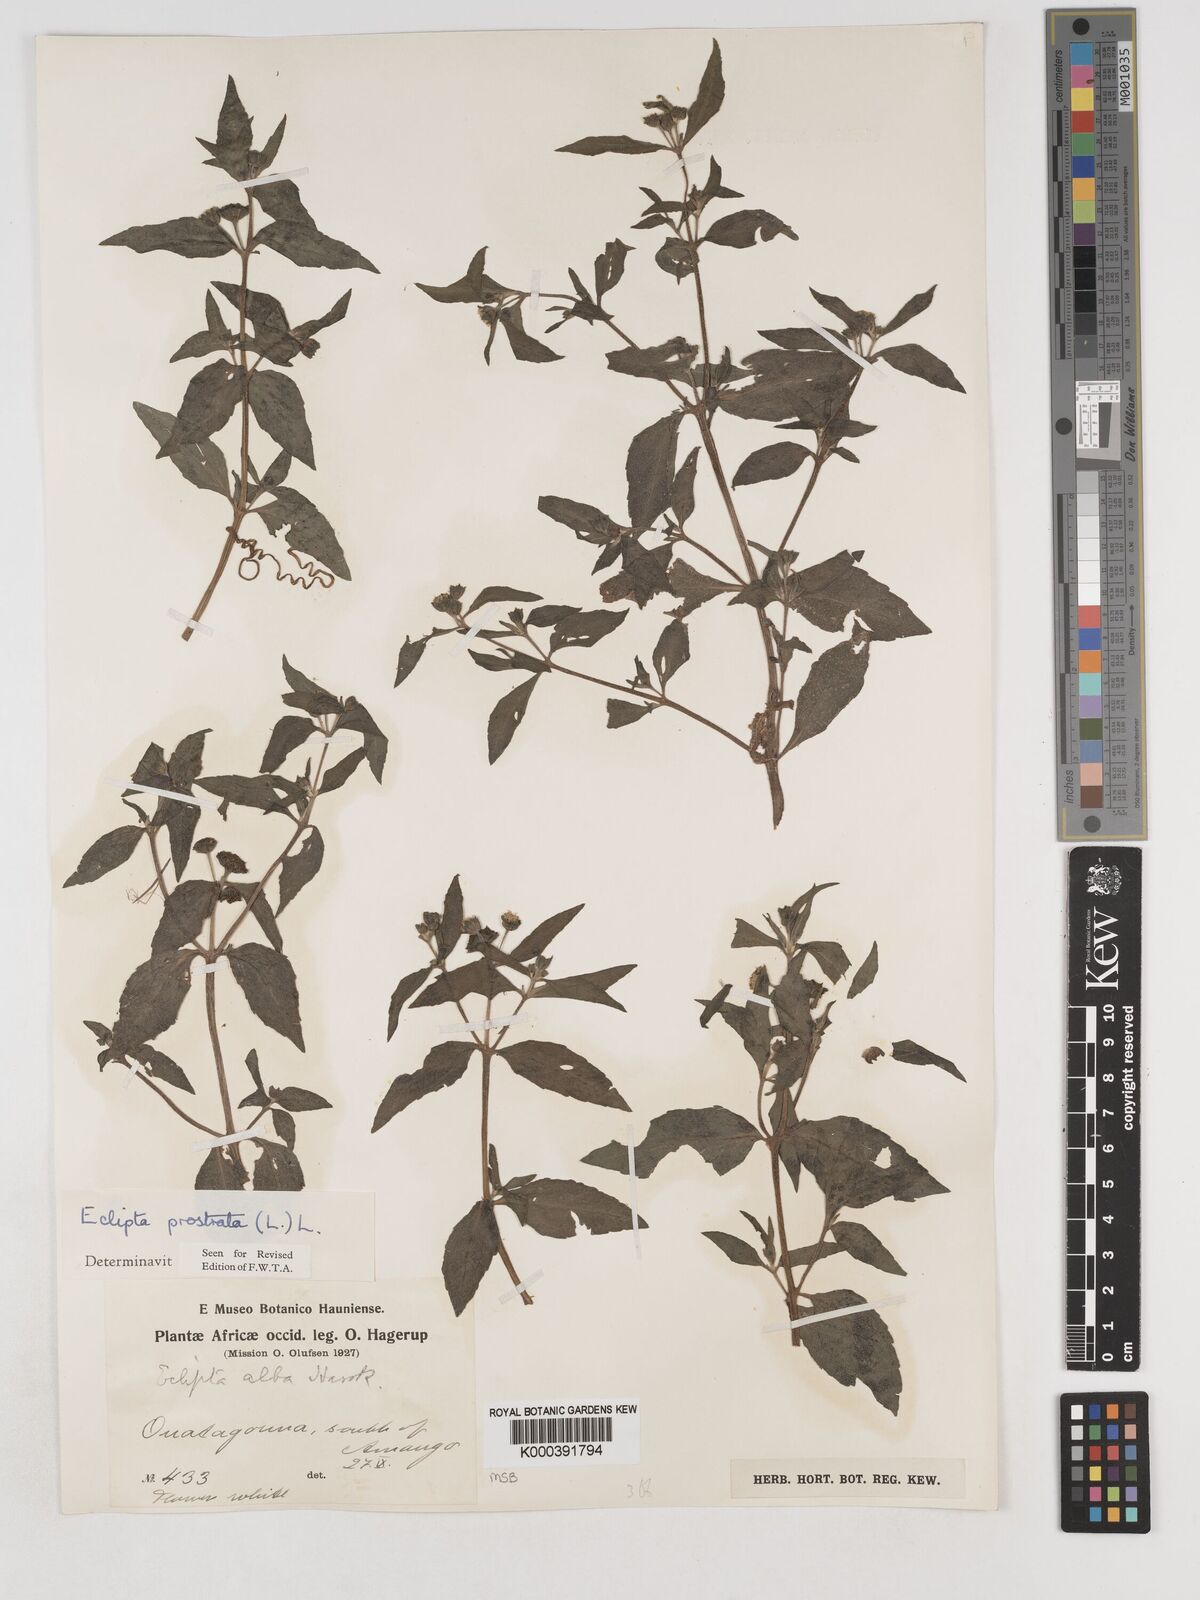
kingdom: Plantae
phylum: Tracheophyta
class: Magnoliopsida
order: Asterales
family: Asteraceae
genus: Eclipta
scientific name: Eclipta prostrata
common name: False daisy
